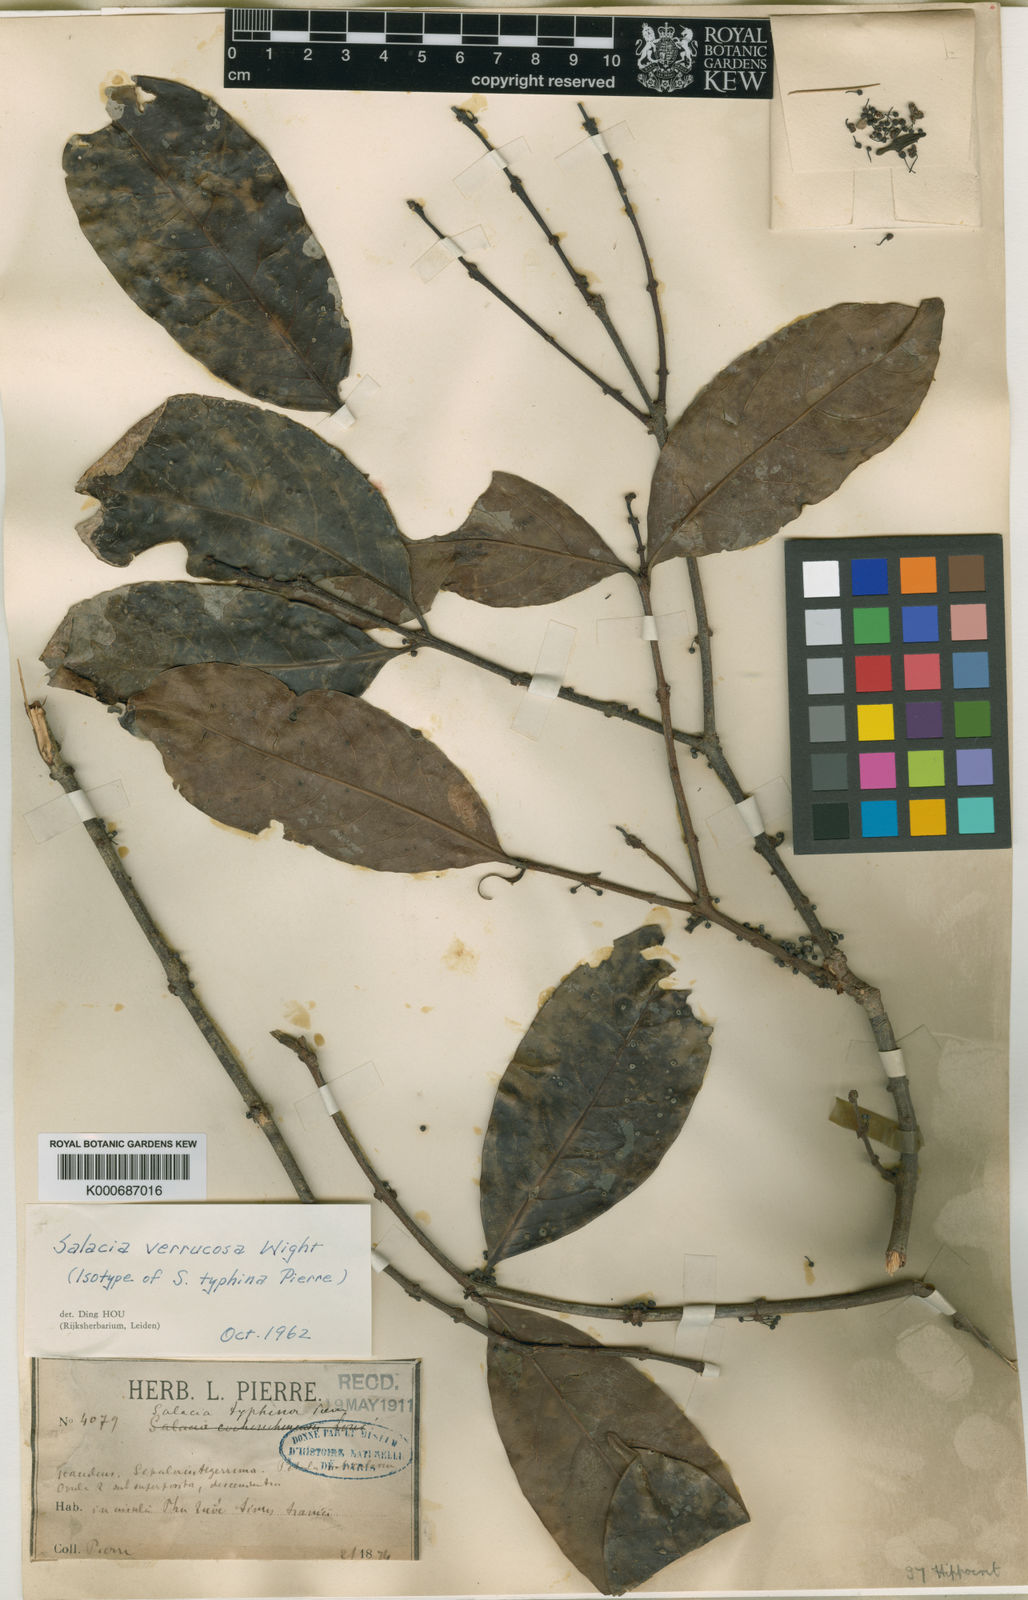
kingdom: Plantae
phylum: Tracheophyta
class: Magnoliopsida
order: Celastrales
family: Celastraceae
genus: Salacia
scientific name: Salacia verrucosa
